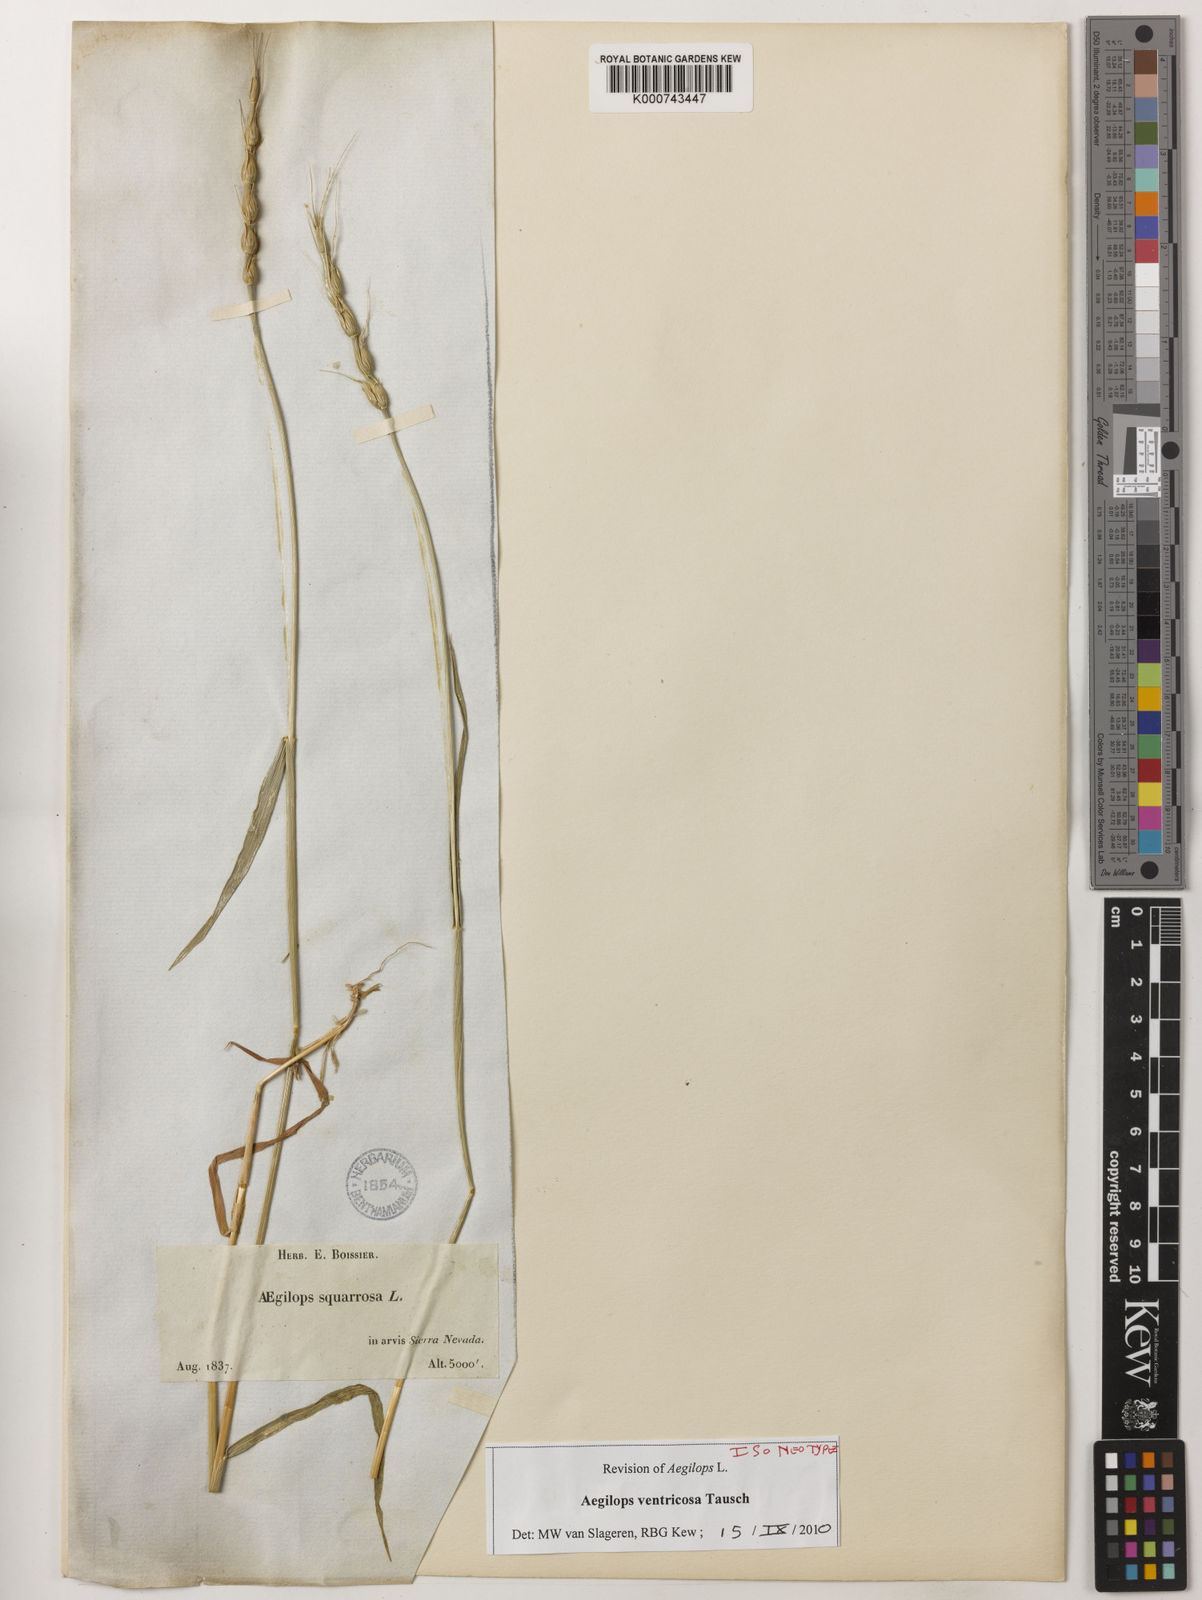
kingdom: Plantae
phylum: Tracheophyta
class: Liliopsida
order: Poales
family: Poaceae
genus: Aegilops
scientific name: Aegilops ventricosa
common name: Swollen goat grass
